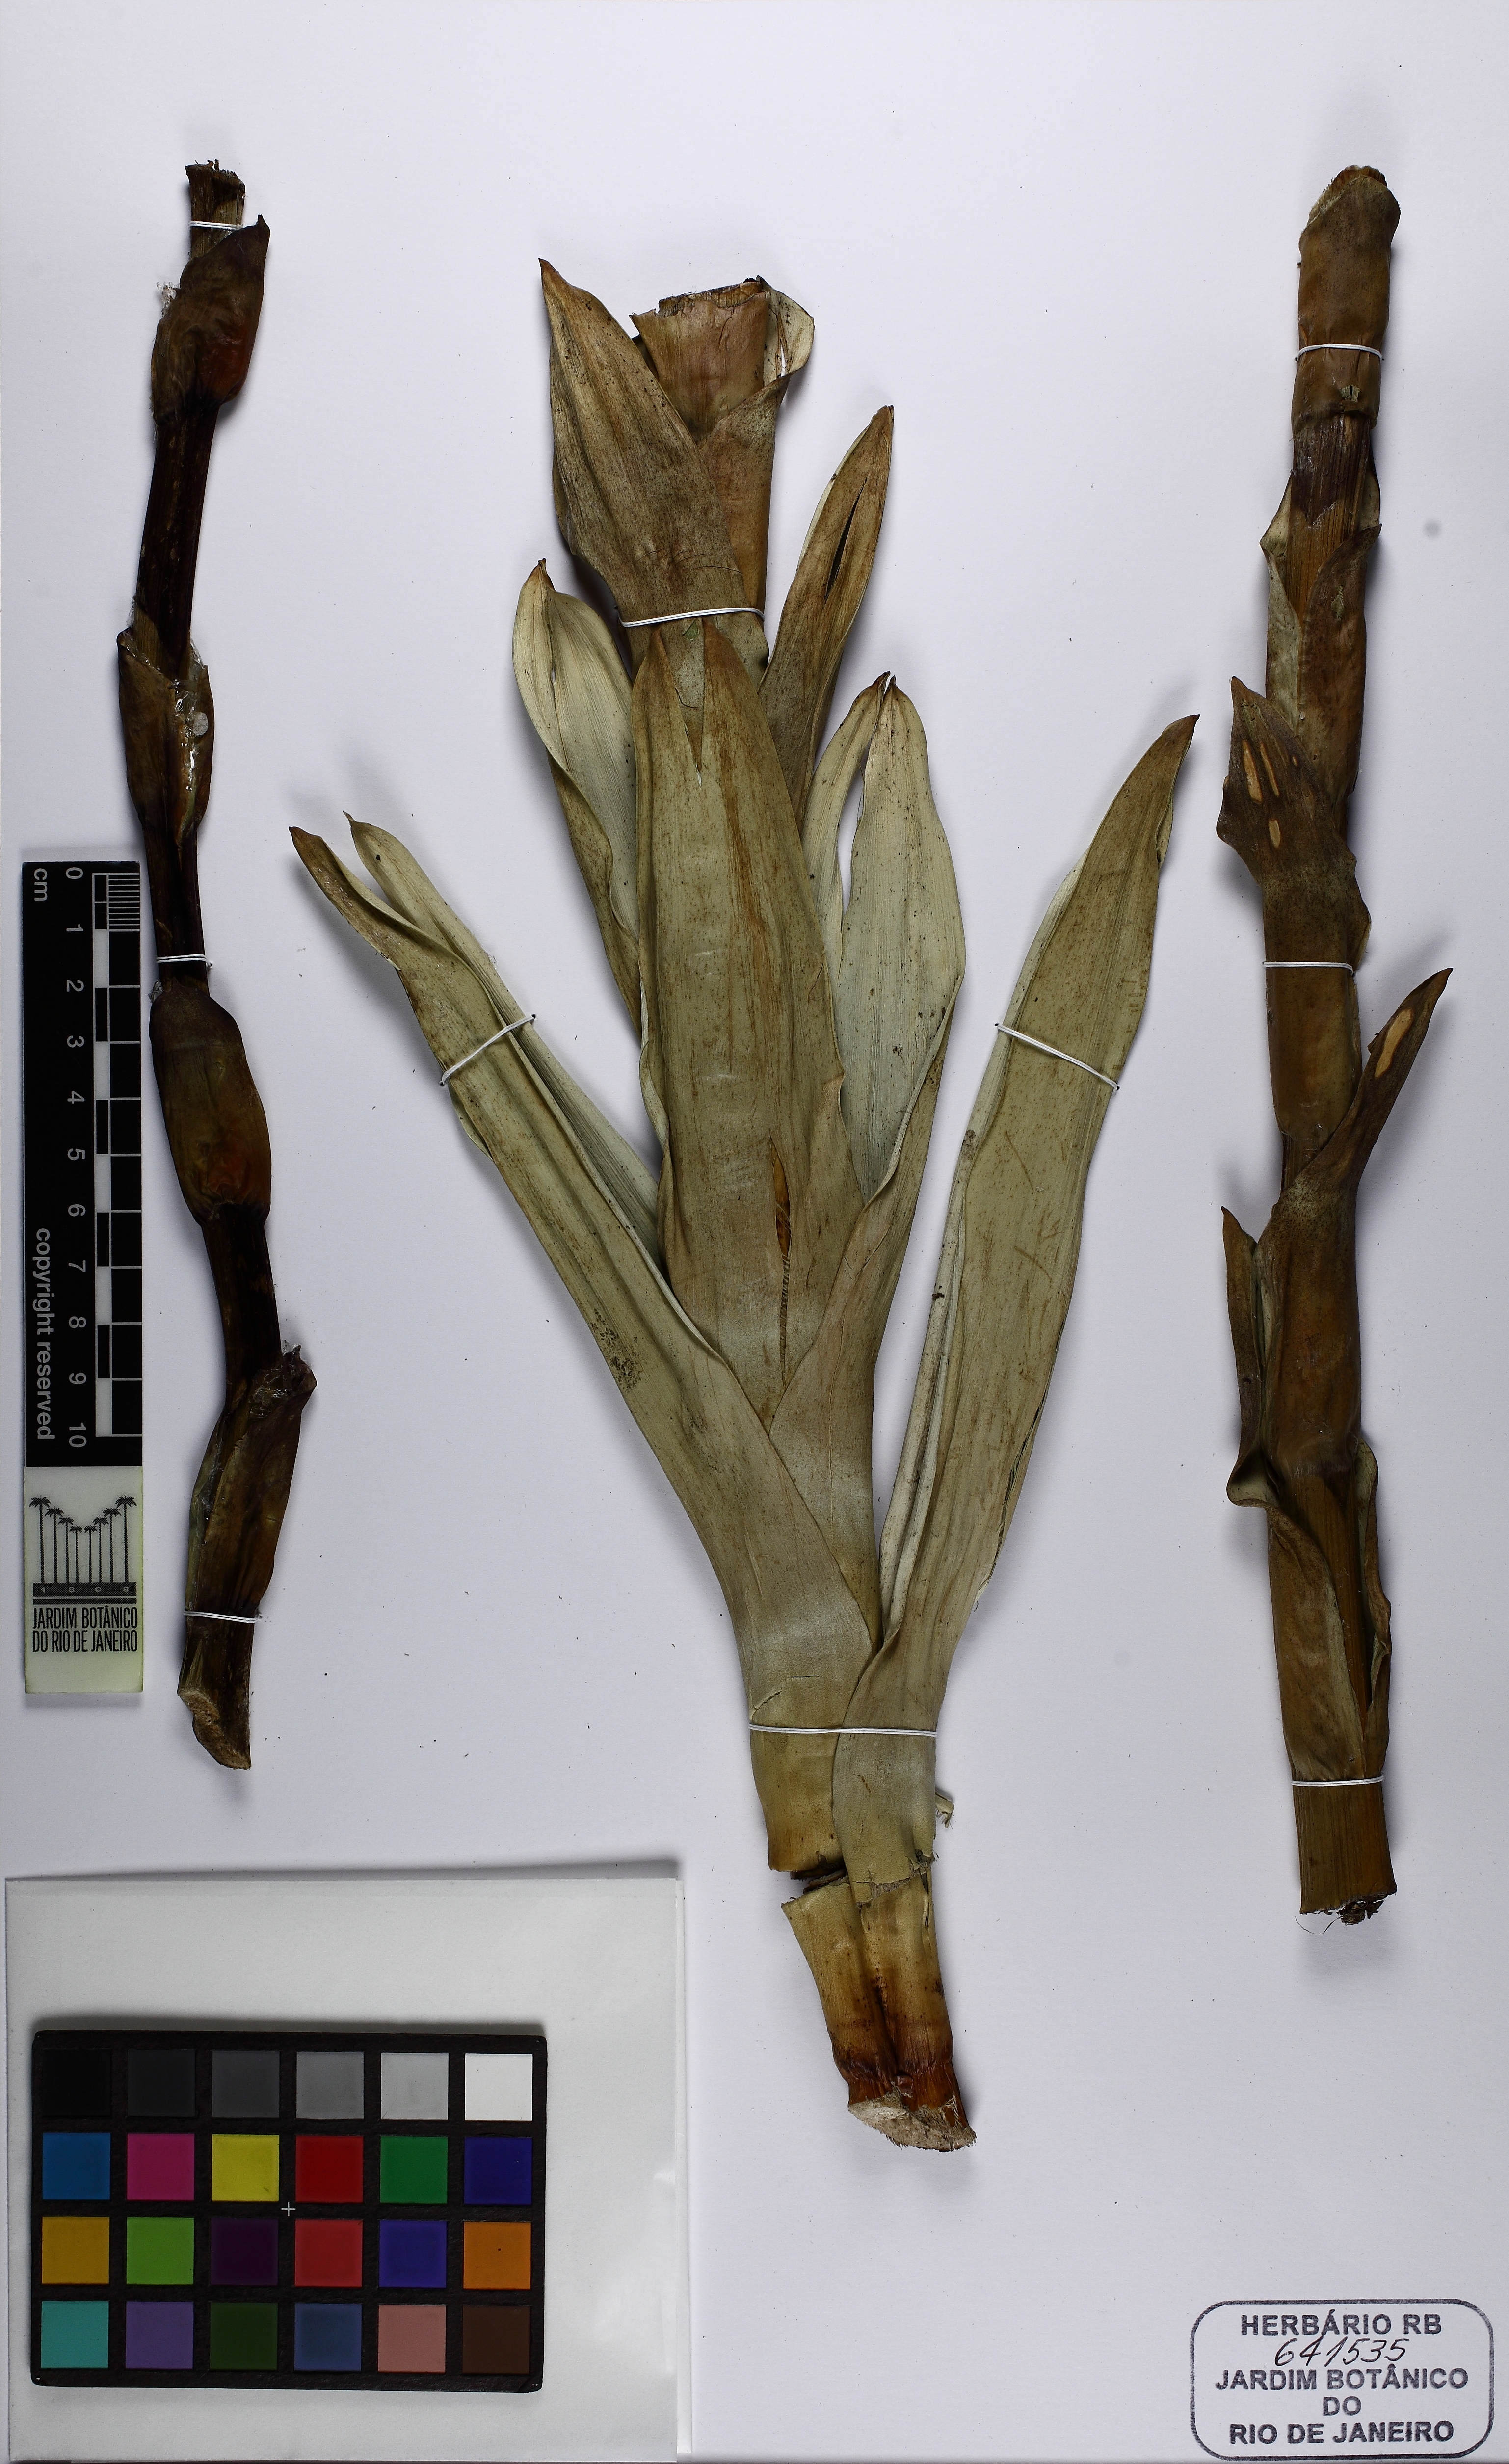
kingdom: Plantae
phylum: Tracheophyta
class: Liliopsida
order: Poales
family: Bromeliaceae
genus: Vriesea
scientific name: Vriesea crassa
